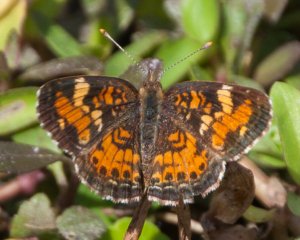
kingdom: Animalia
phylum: Arthropoda
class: Insecta
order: Lepidoptera
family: Nymphalidae
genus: Phyciodes
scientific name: Phyciodes phaon
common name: Phaon Crescent
